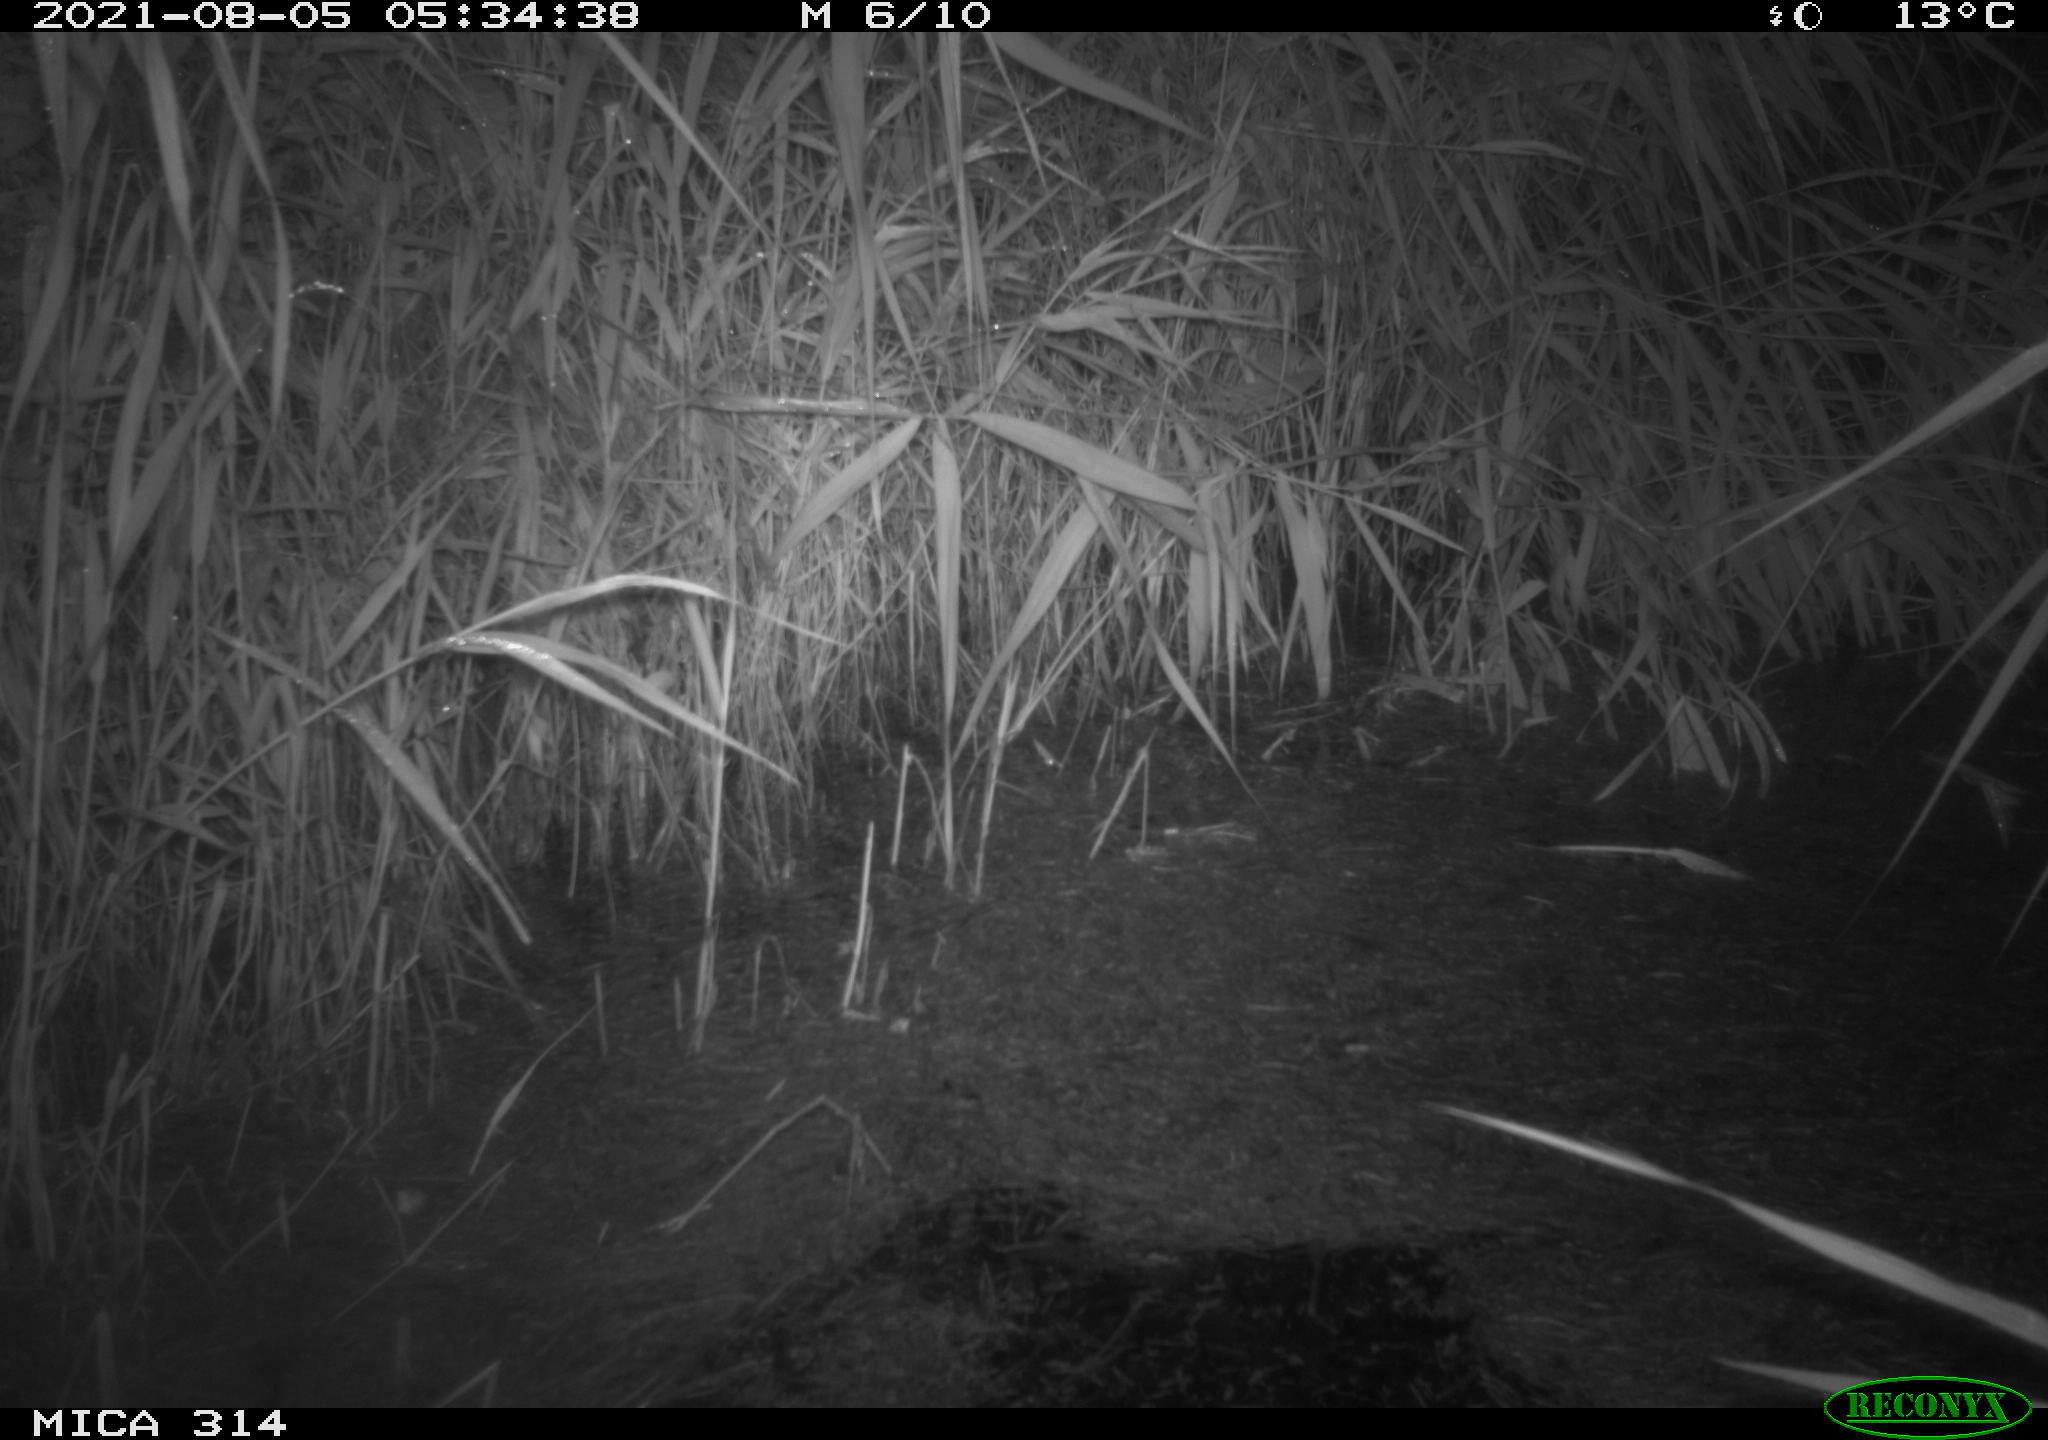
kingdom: Animalia
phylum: Chordata
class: Mammalia
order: Rodentia
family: Muridae
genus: Rattus
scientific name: Rattus norvegicus
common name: Brown rat
